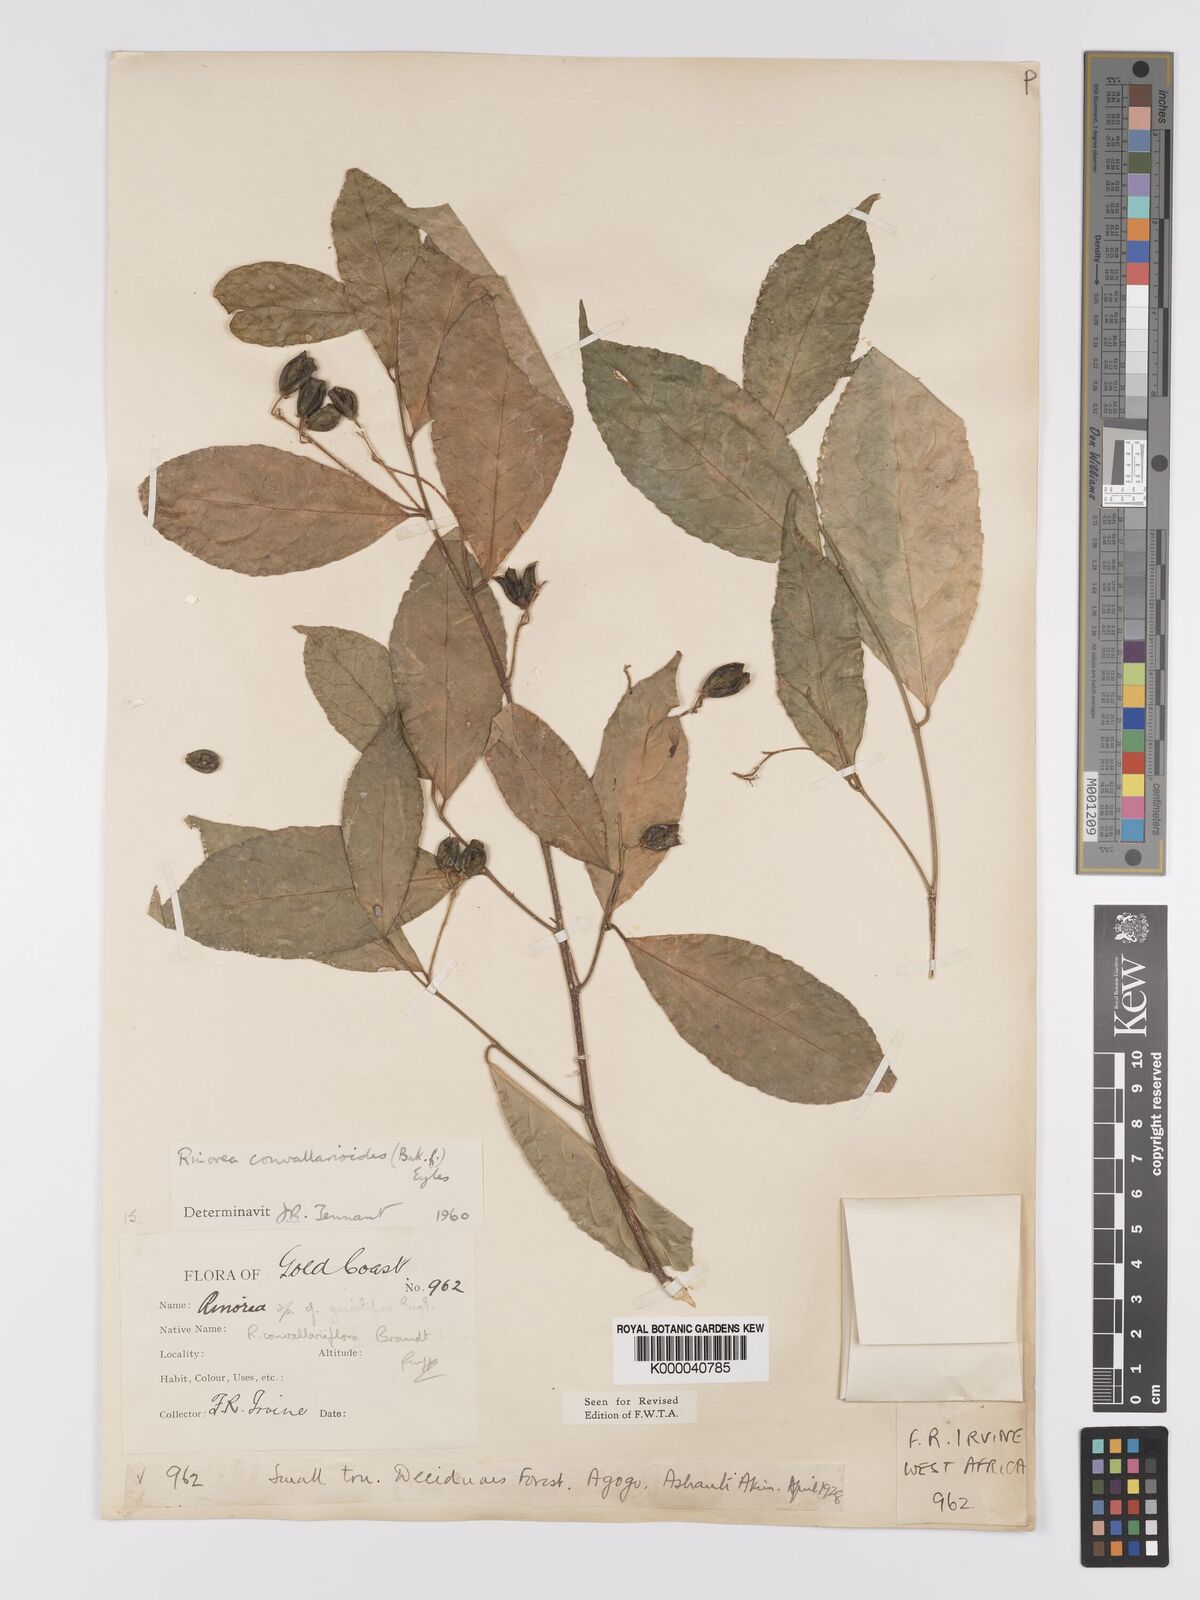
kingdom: Plantae
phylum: Tracheophyta
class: Magnoliopsida
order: Malpighiales
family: Violaceae
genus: Rinorea
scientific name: Rinorea convallarioides
